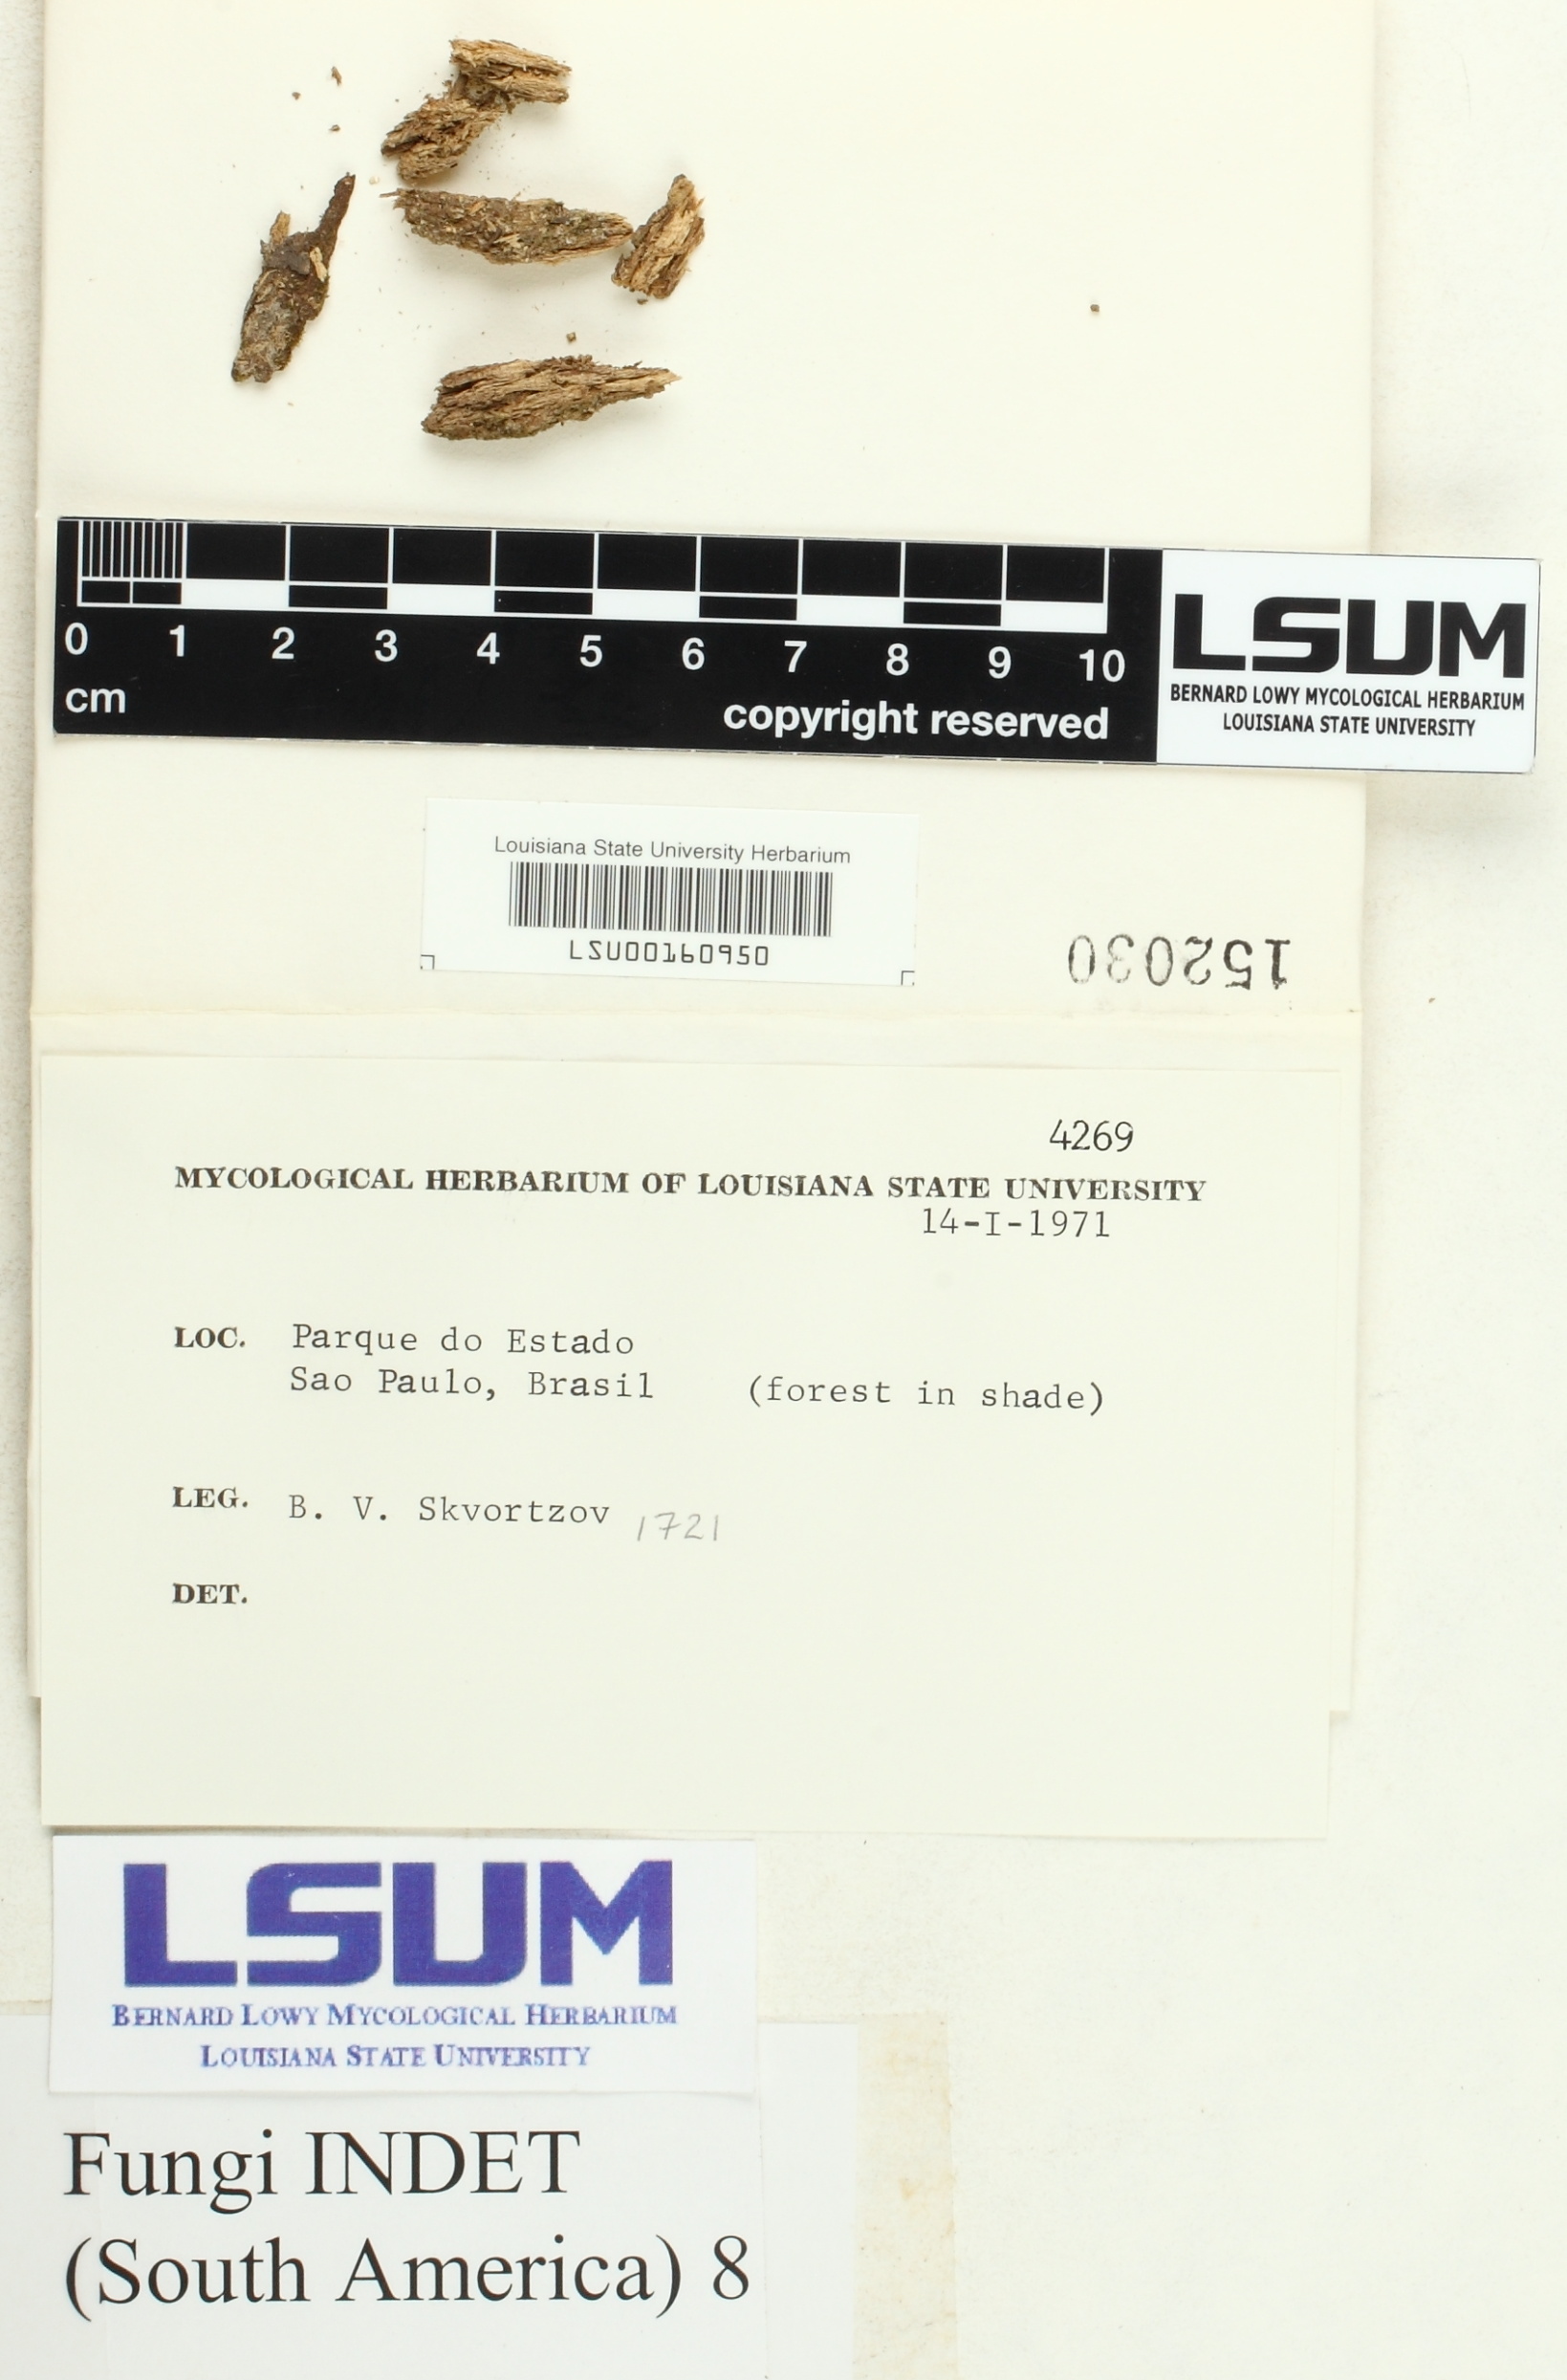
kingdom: Fungi
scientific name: Fungi
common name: Fungi
